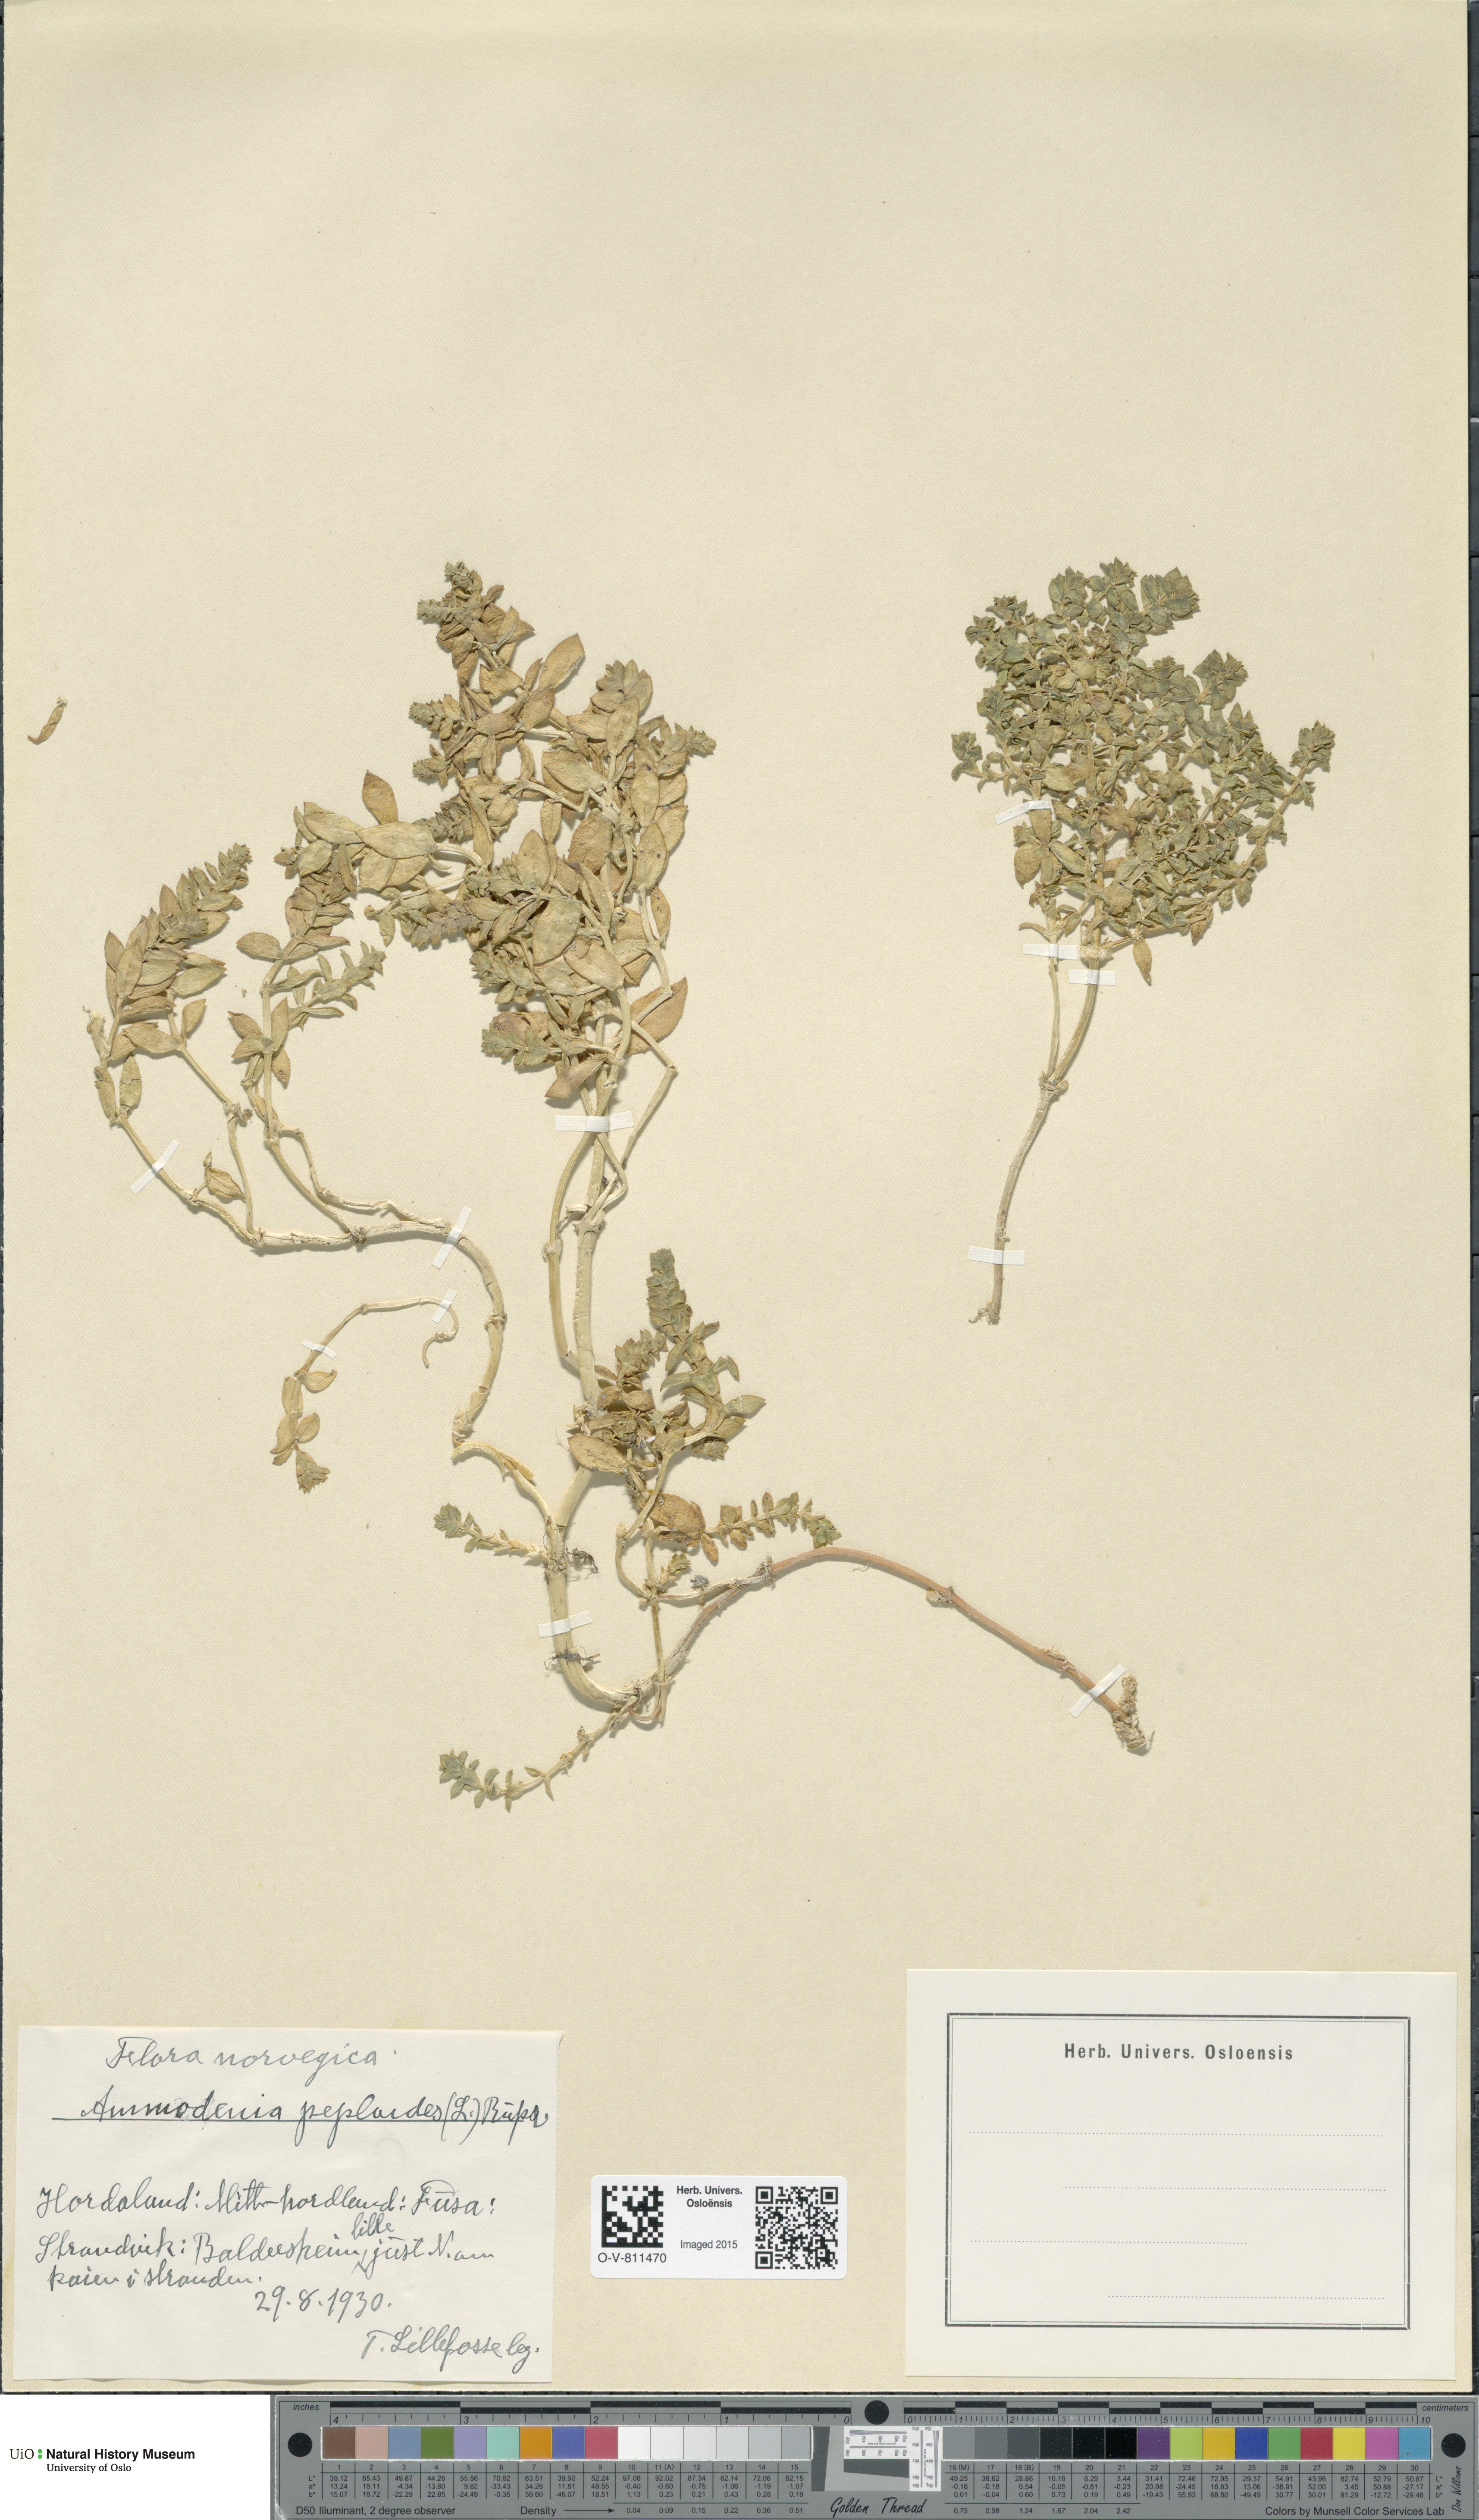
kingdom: Plantae
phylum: Tracheophyta
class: Magnoliopsida
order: Caryophyllales
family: Caryophyllaceae
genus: Honckenya
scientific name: Honckenya peploides
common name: Sea sandwort
